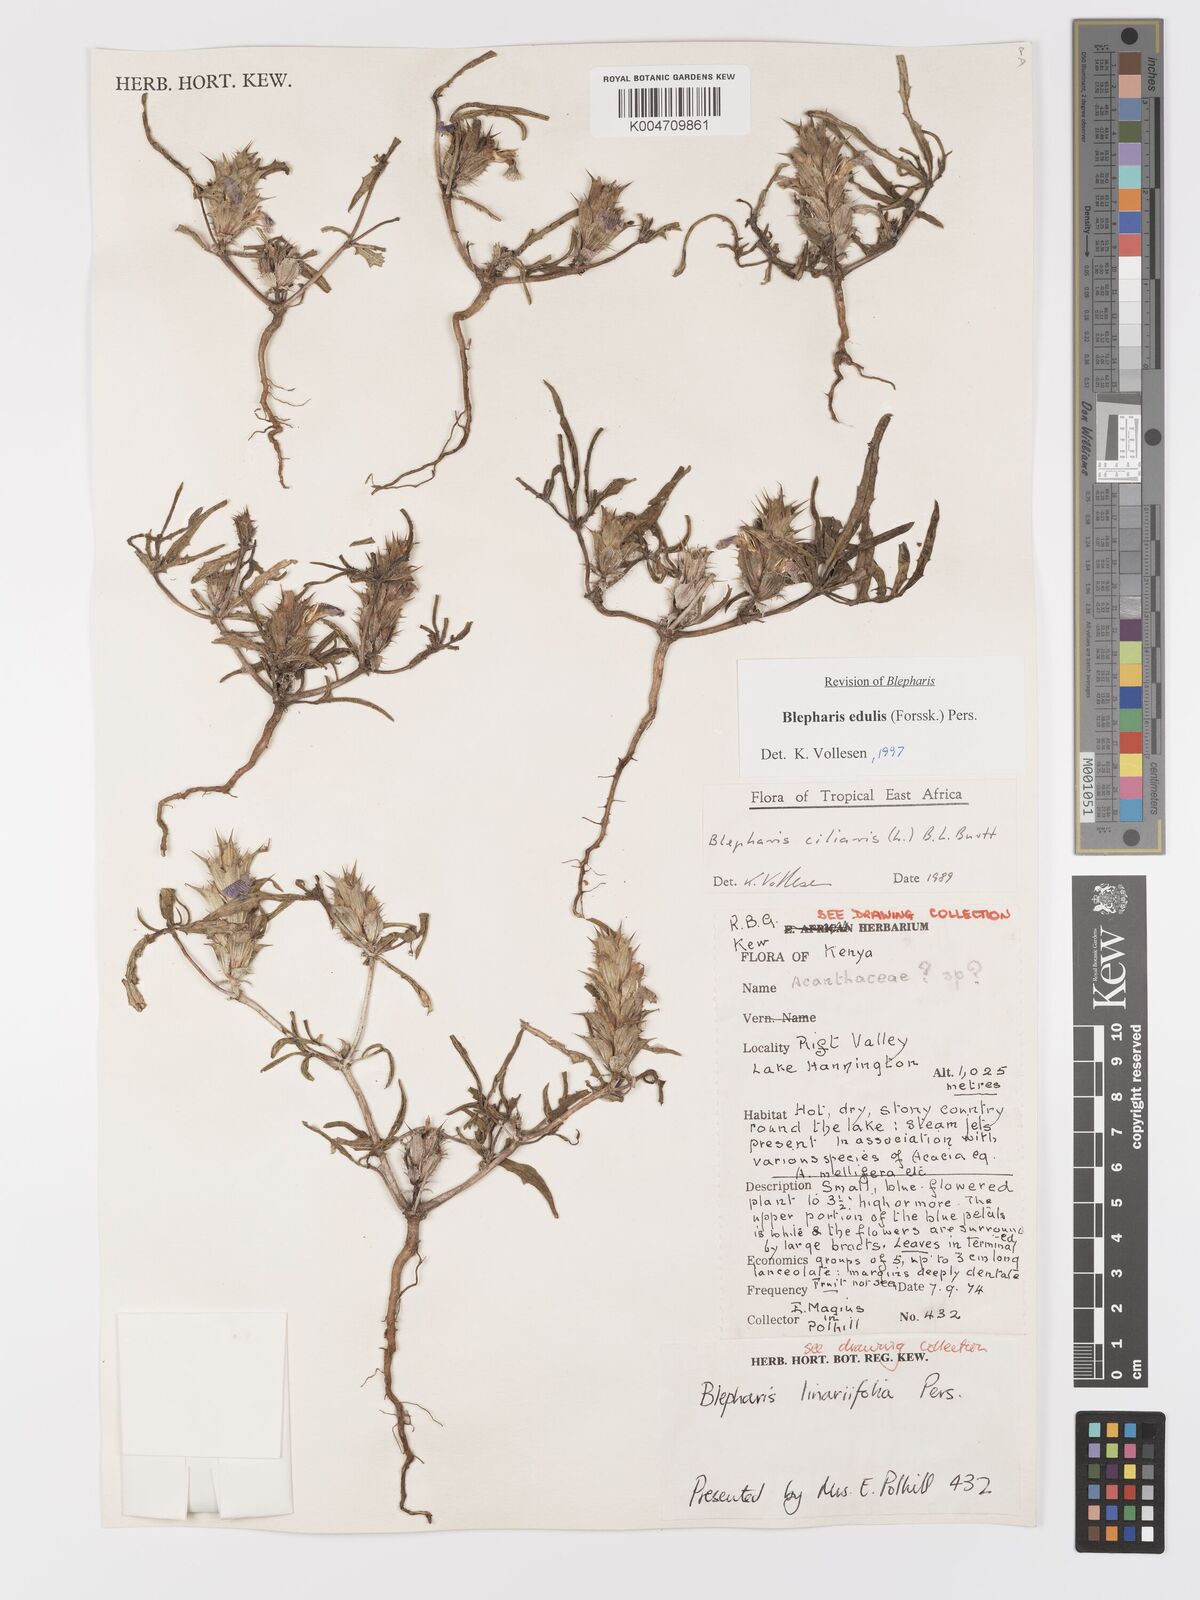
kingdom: Plantae
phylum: Tracheophyta
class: Magnoliopsida
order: Lamiales
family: Acanthaceae
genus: Blepharis
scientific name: Blepharis edulis
